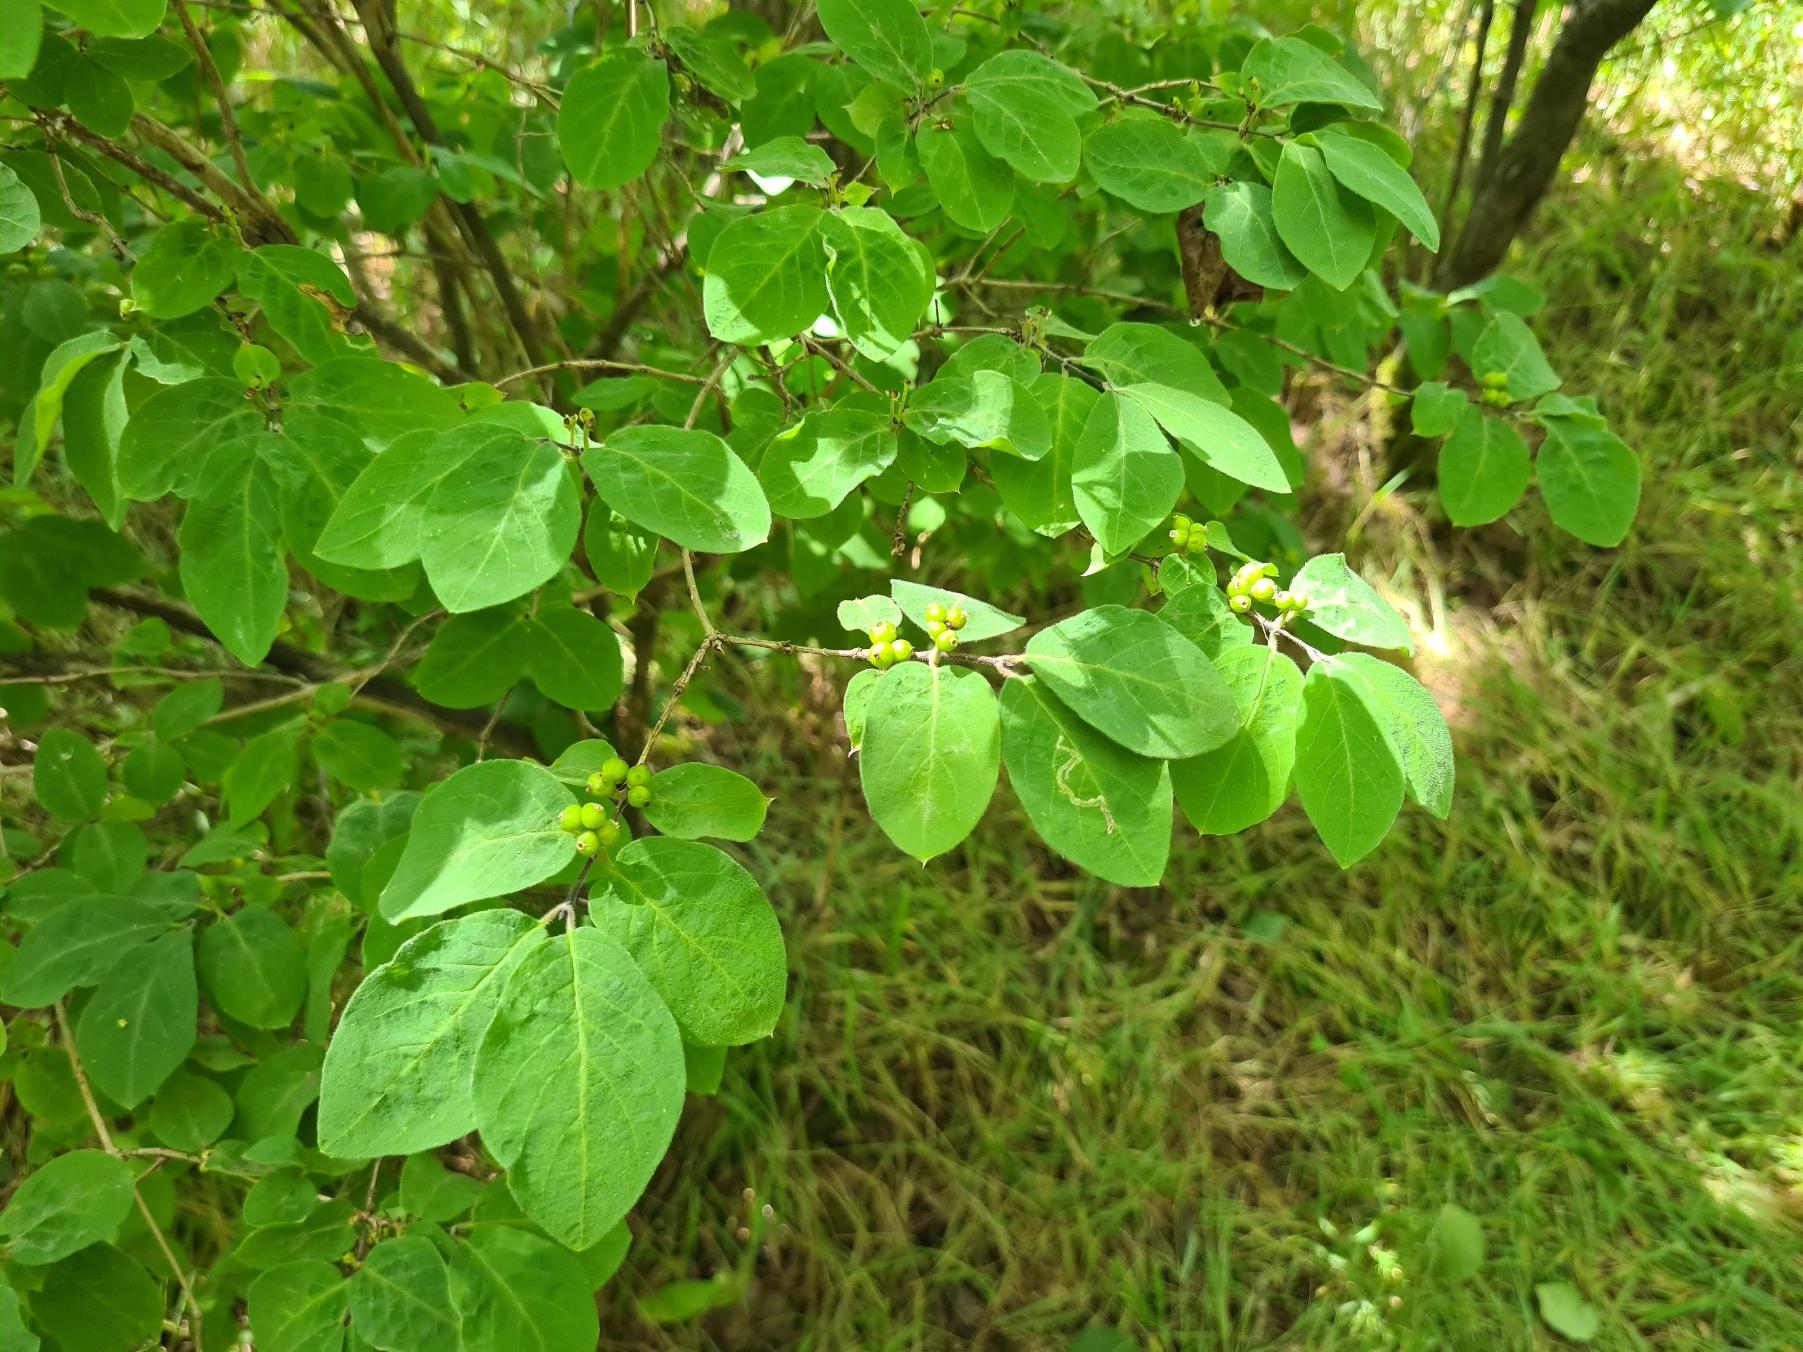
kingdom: Plantae
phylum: Tracheophyta
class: Magnoliopsida
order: Dipsacales
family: Caprifoliaceae
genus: Lonicera
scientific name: Lonicera xylosteum
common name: Dunet gedeblad
